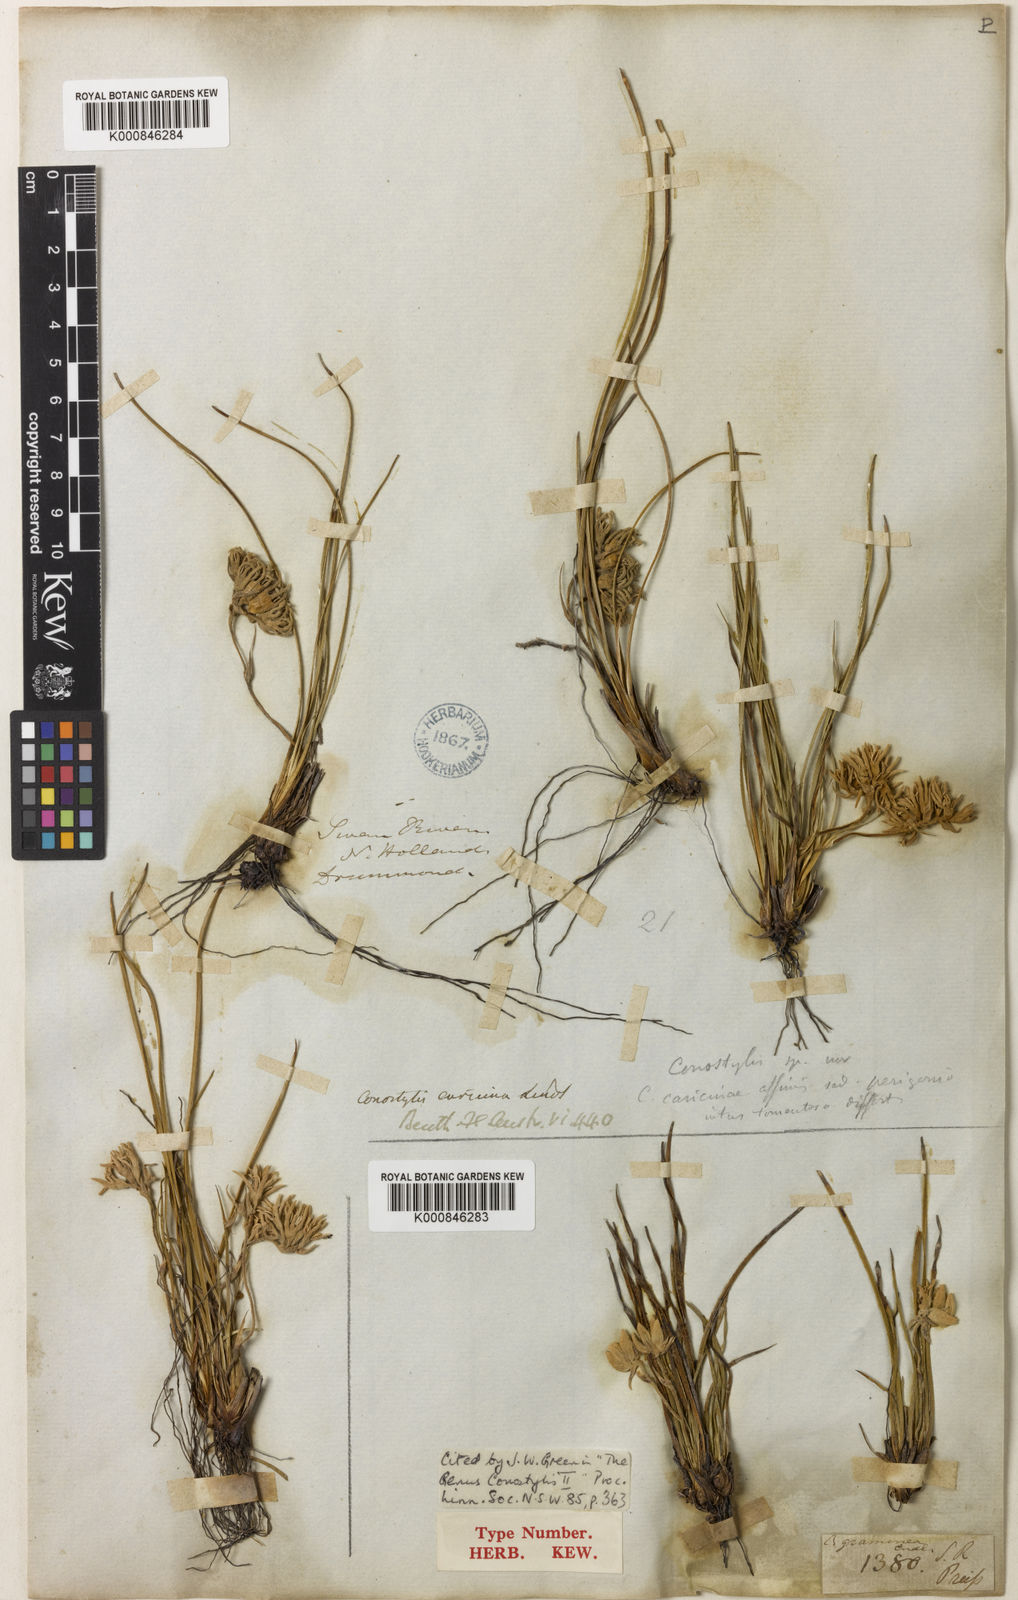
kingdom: Plantae
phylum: Tracheophyta
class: Liliopsida
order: Commelinales
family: Haemodoraceae
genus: Conostylis
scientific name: Conostylis caricina
